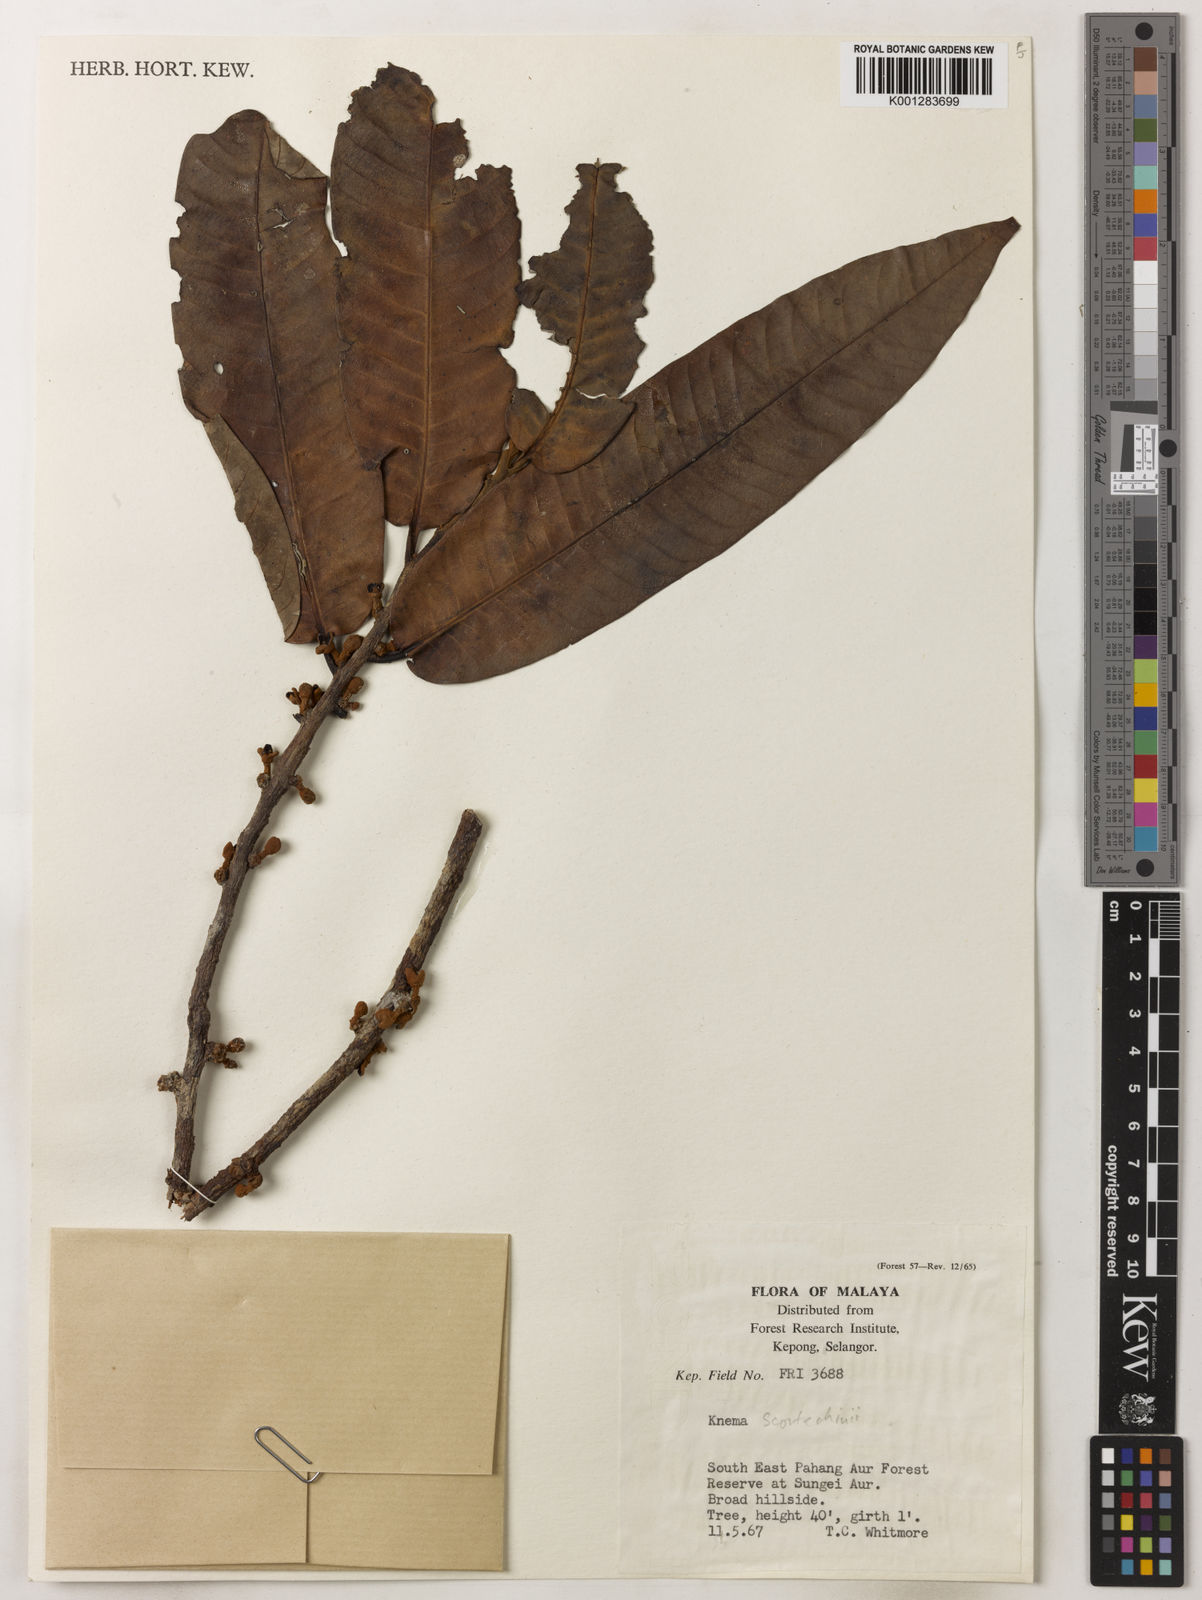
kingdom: Plantae
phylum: Tracheophyta
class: Magnoliopsida
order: Magnoliales
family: Myristicaceae
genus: Knema
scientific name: Knema scortechinii
